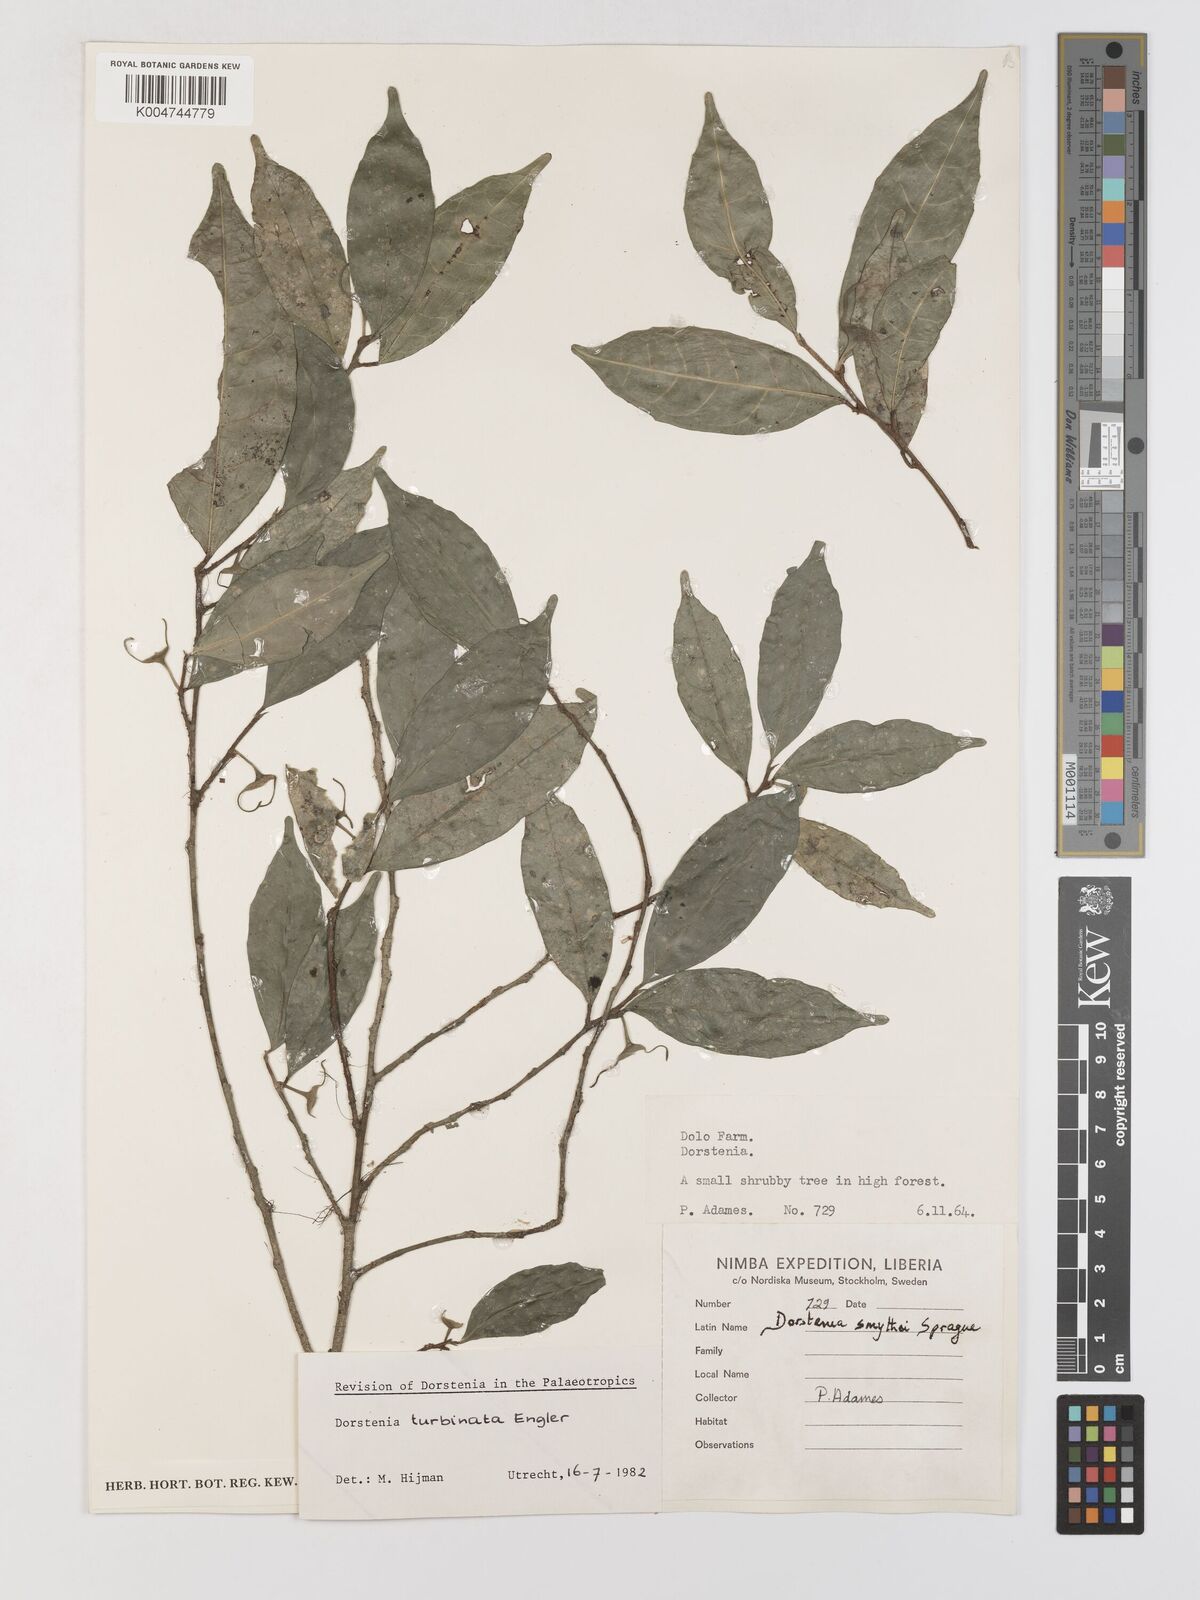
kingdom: Plantae
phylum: Tracheophyta
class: Magnoliopsida
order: Rosales
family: Moraceae
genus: Hijmania
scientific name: Hijmania turbinata
